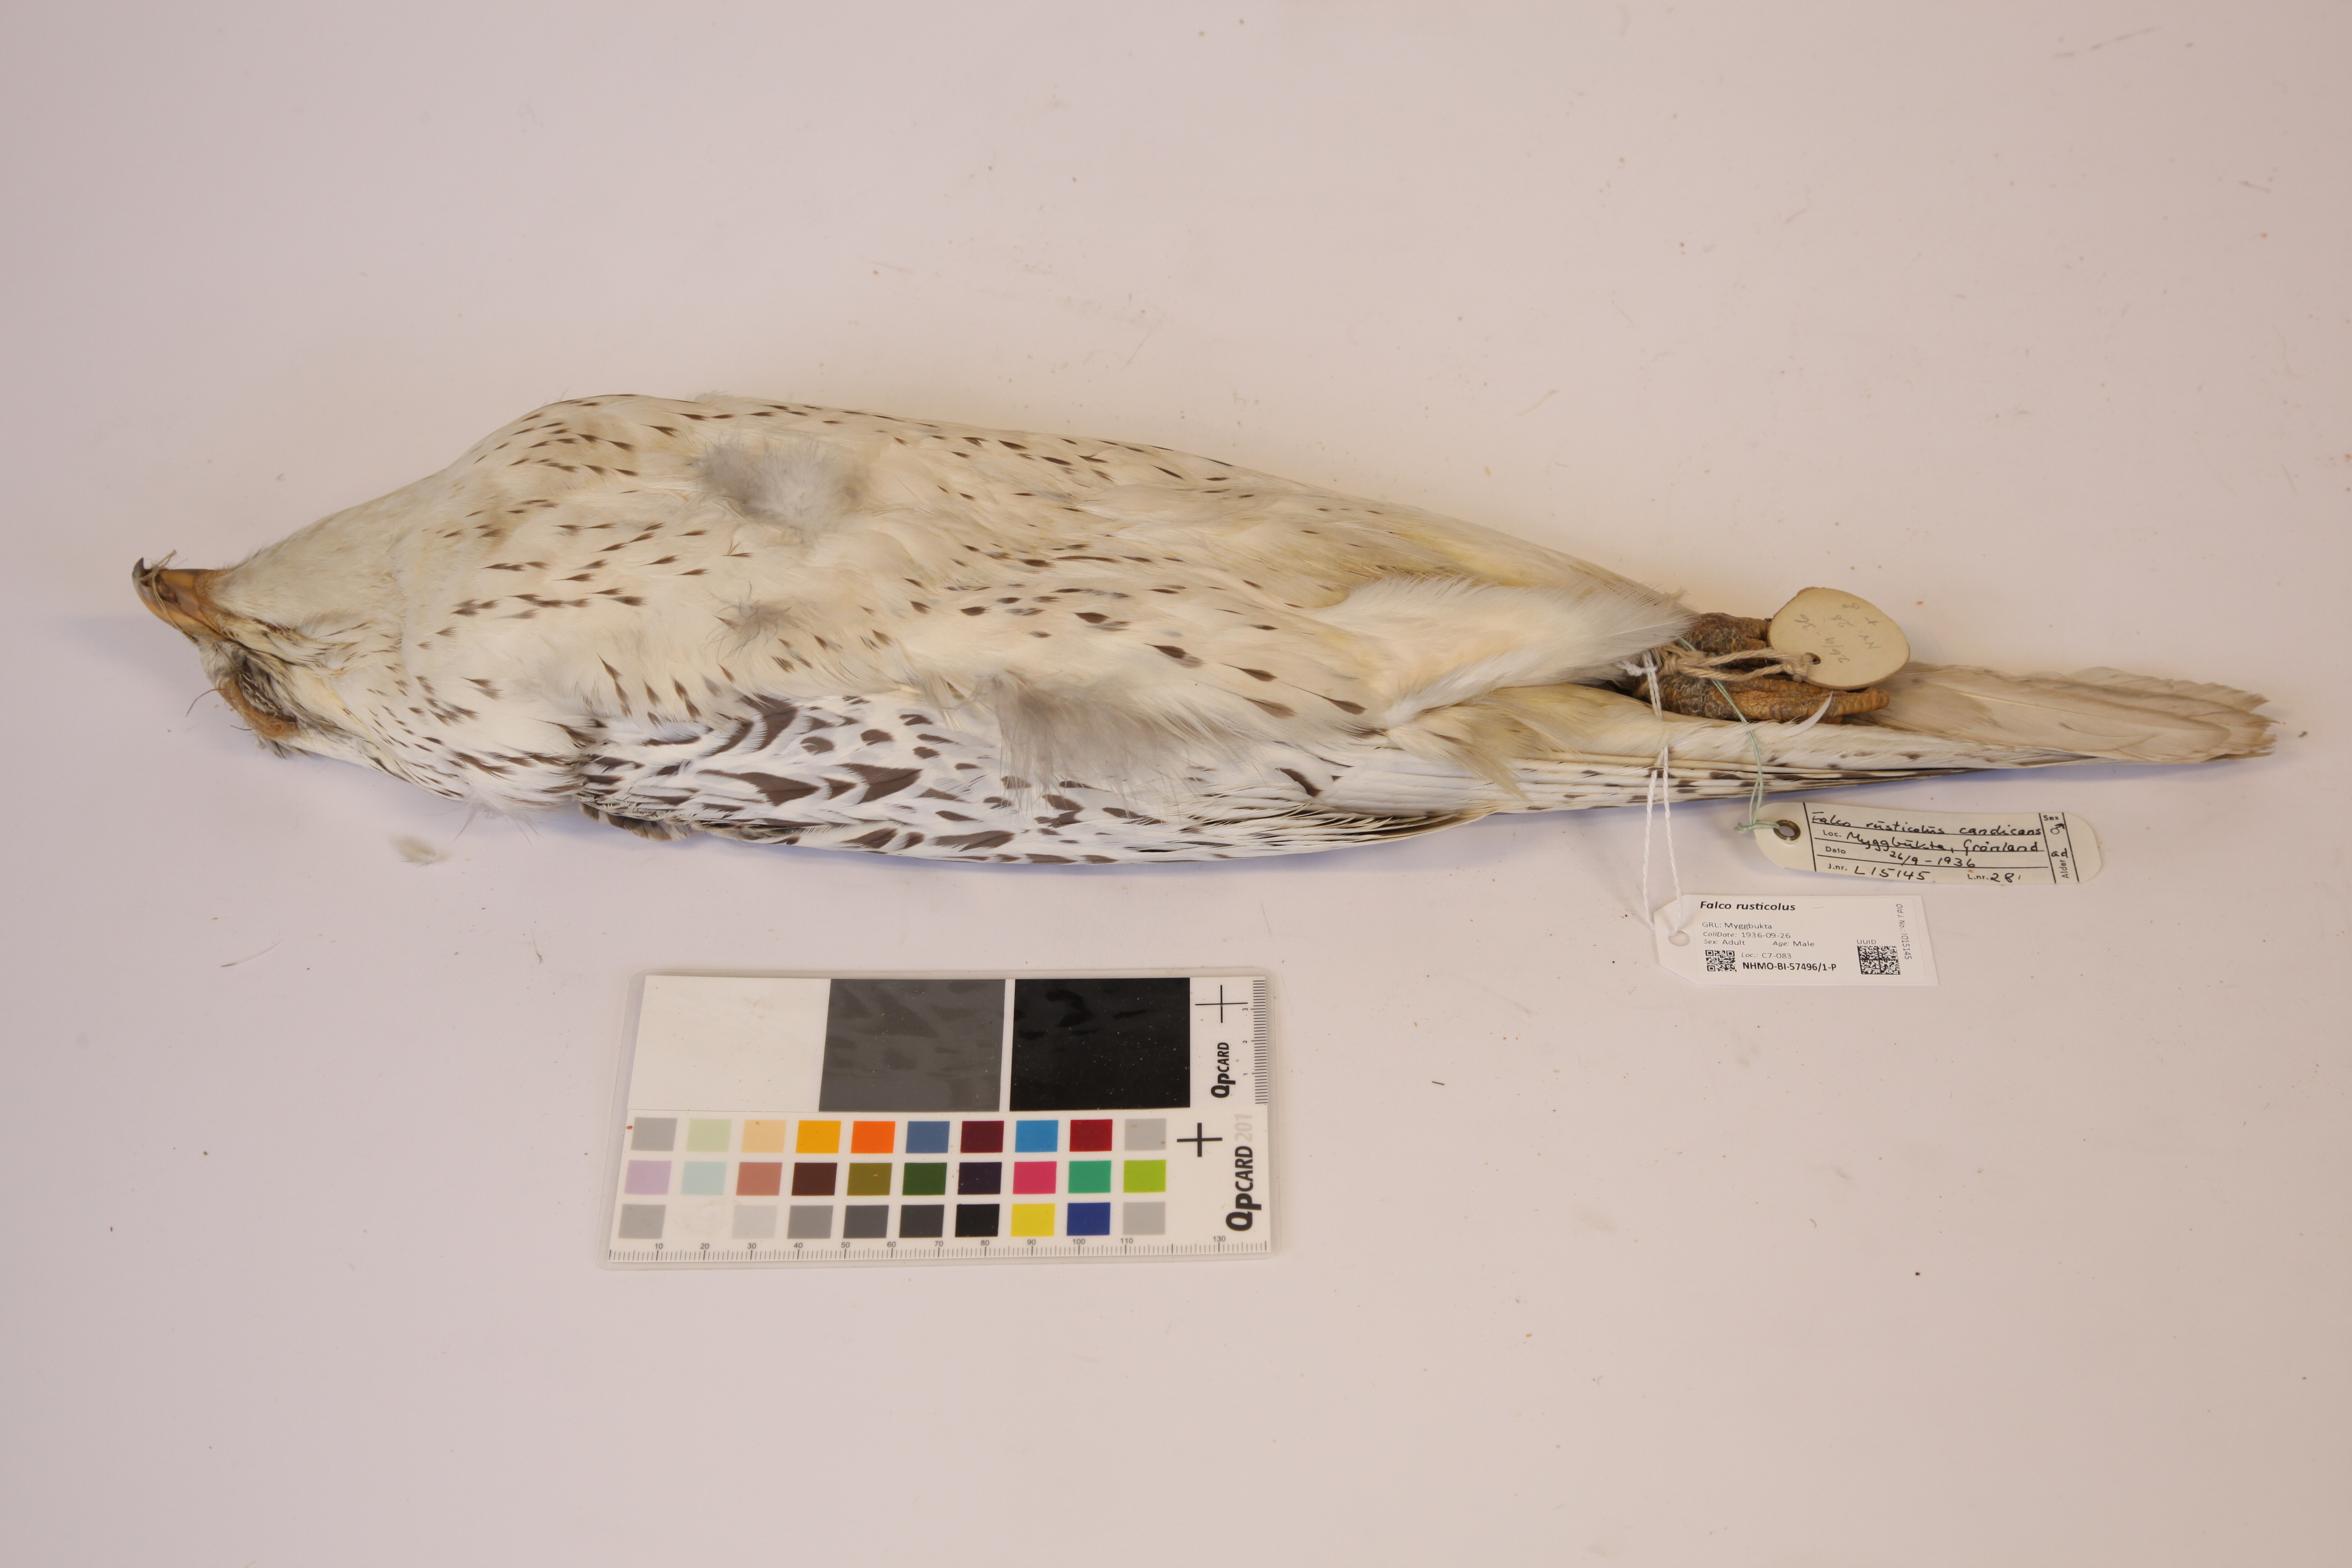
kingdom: Animalia
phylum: Chordata
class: Aves
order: Falconiformes
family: Falconidae
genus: Falco
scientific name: Falco rusticolus
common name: Gyrfalcon
